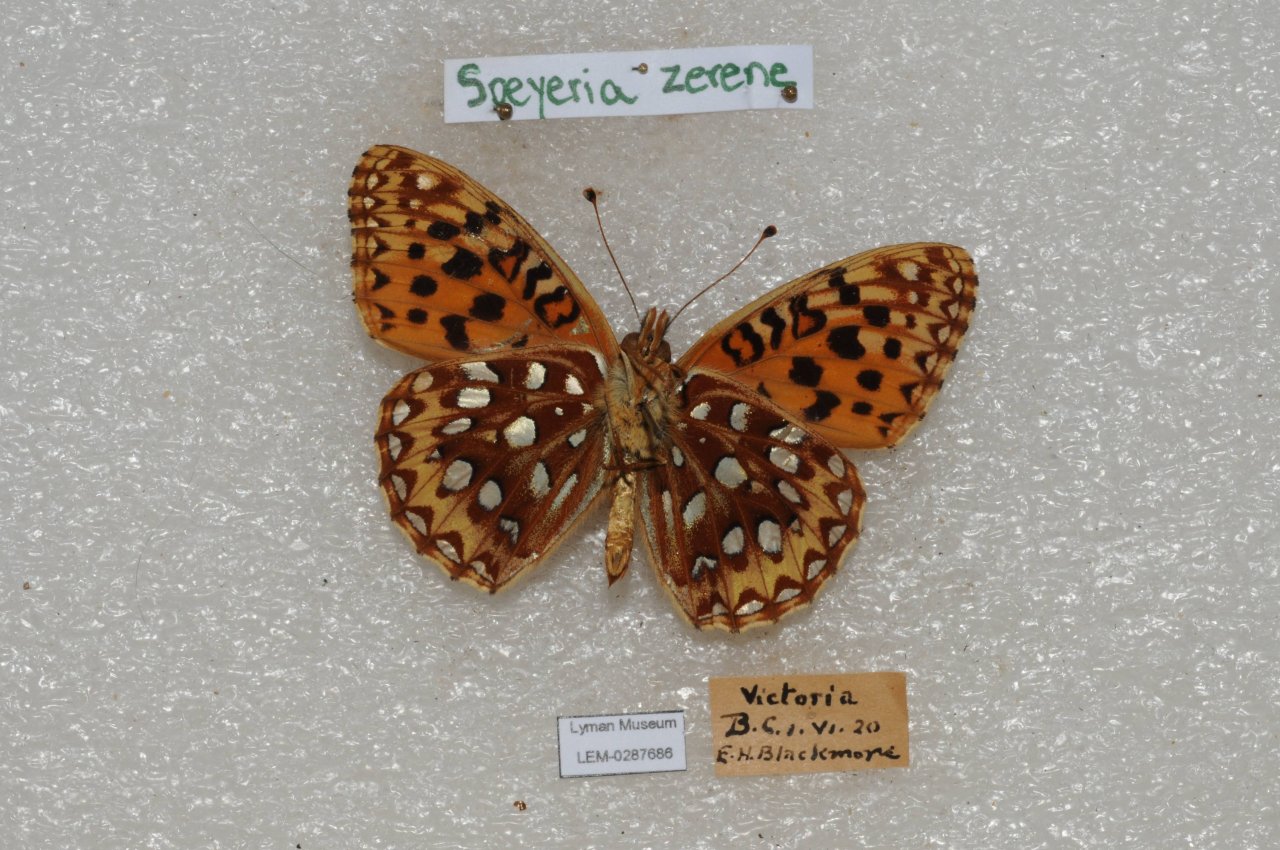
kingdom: Animalia
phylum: Arthropoda
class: Insecta
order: Lepidoptera
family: Nymphalidae
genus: Speyeria
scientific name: Speyeria zerene
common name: Zerene Fritillary
